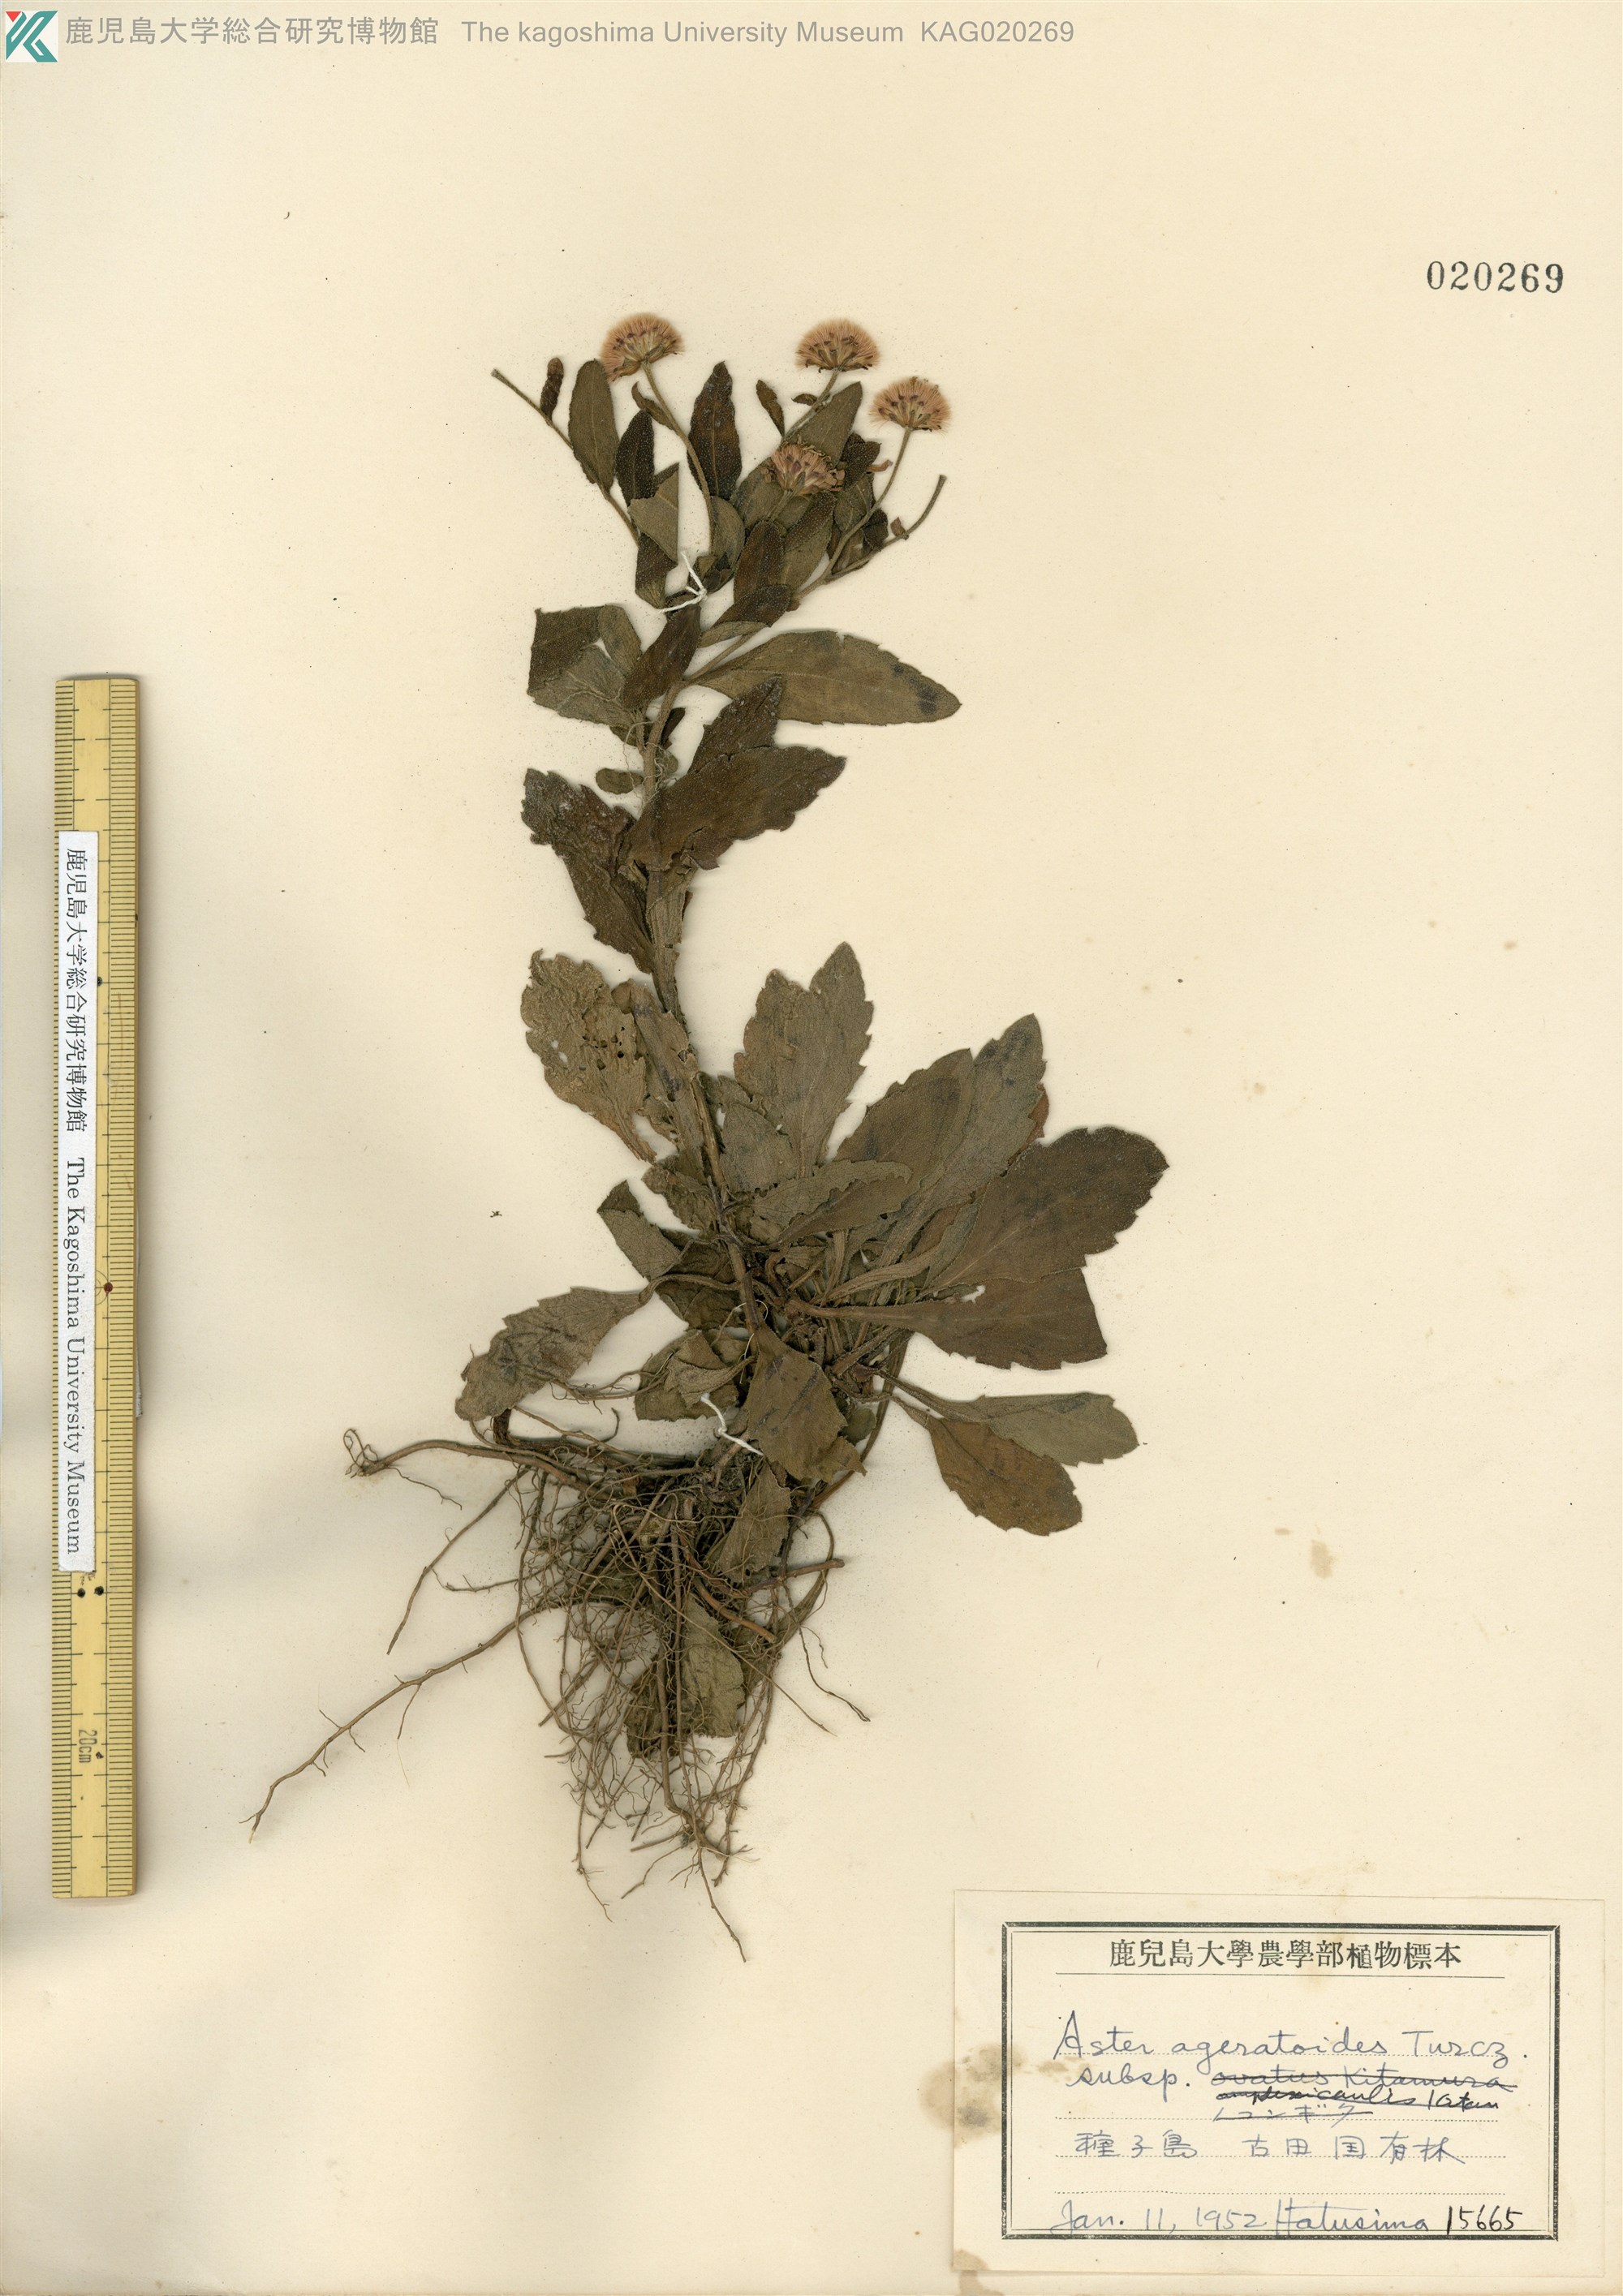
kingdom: Plantae
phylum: Tracheophyta
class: Magnoliopsida
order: Asterales
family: Asteraceae
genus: Aster
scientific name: Aster microcephalus
